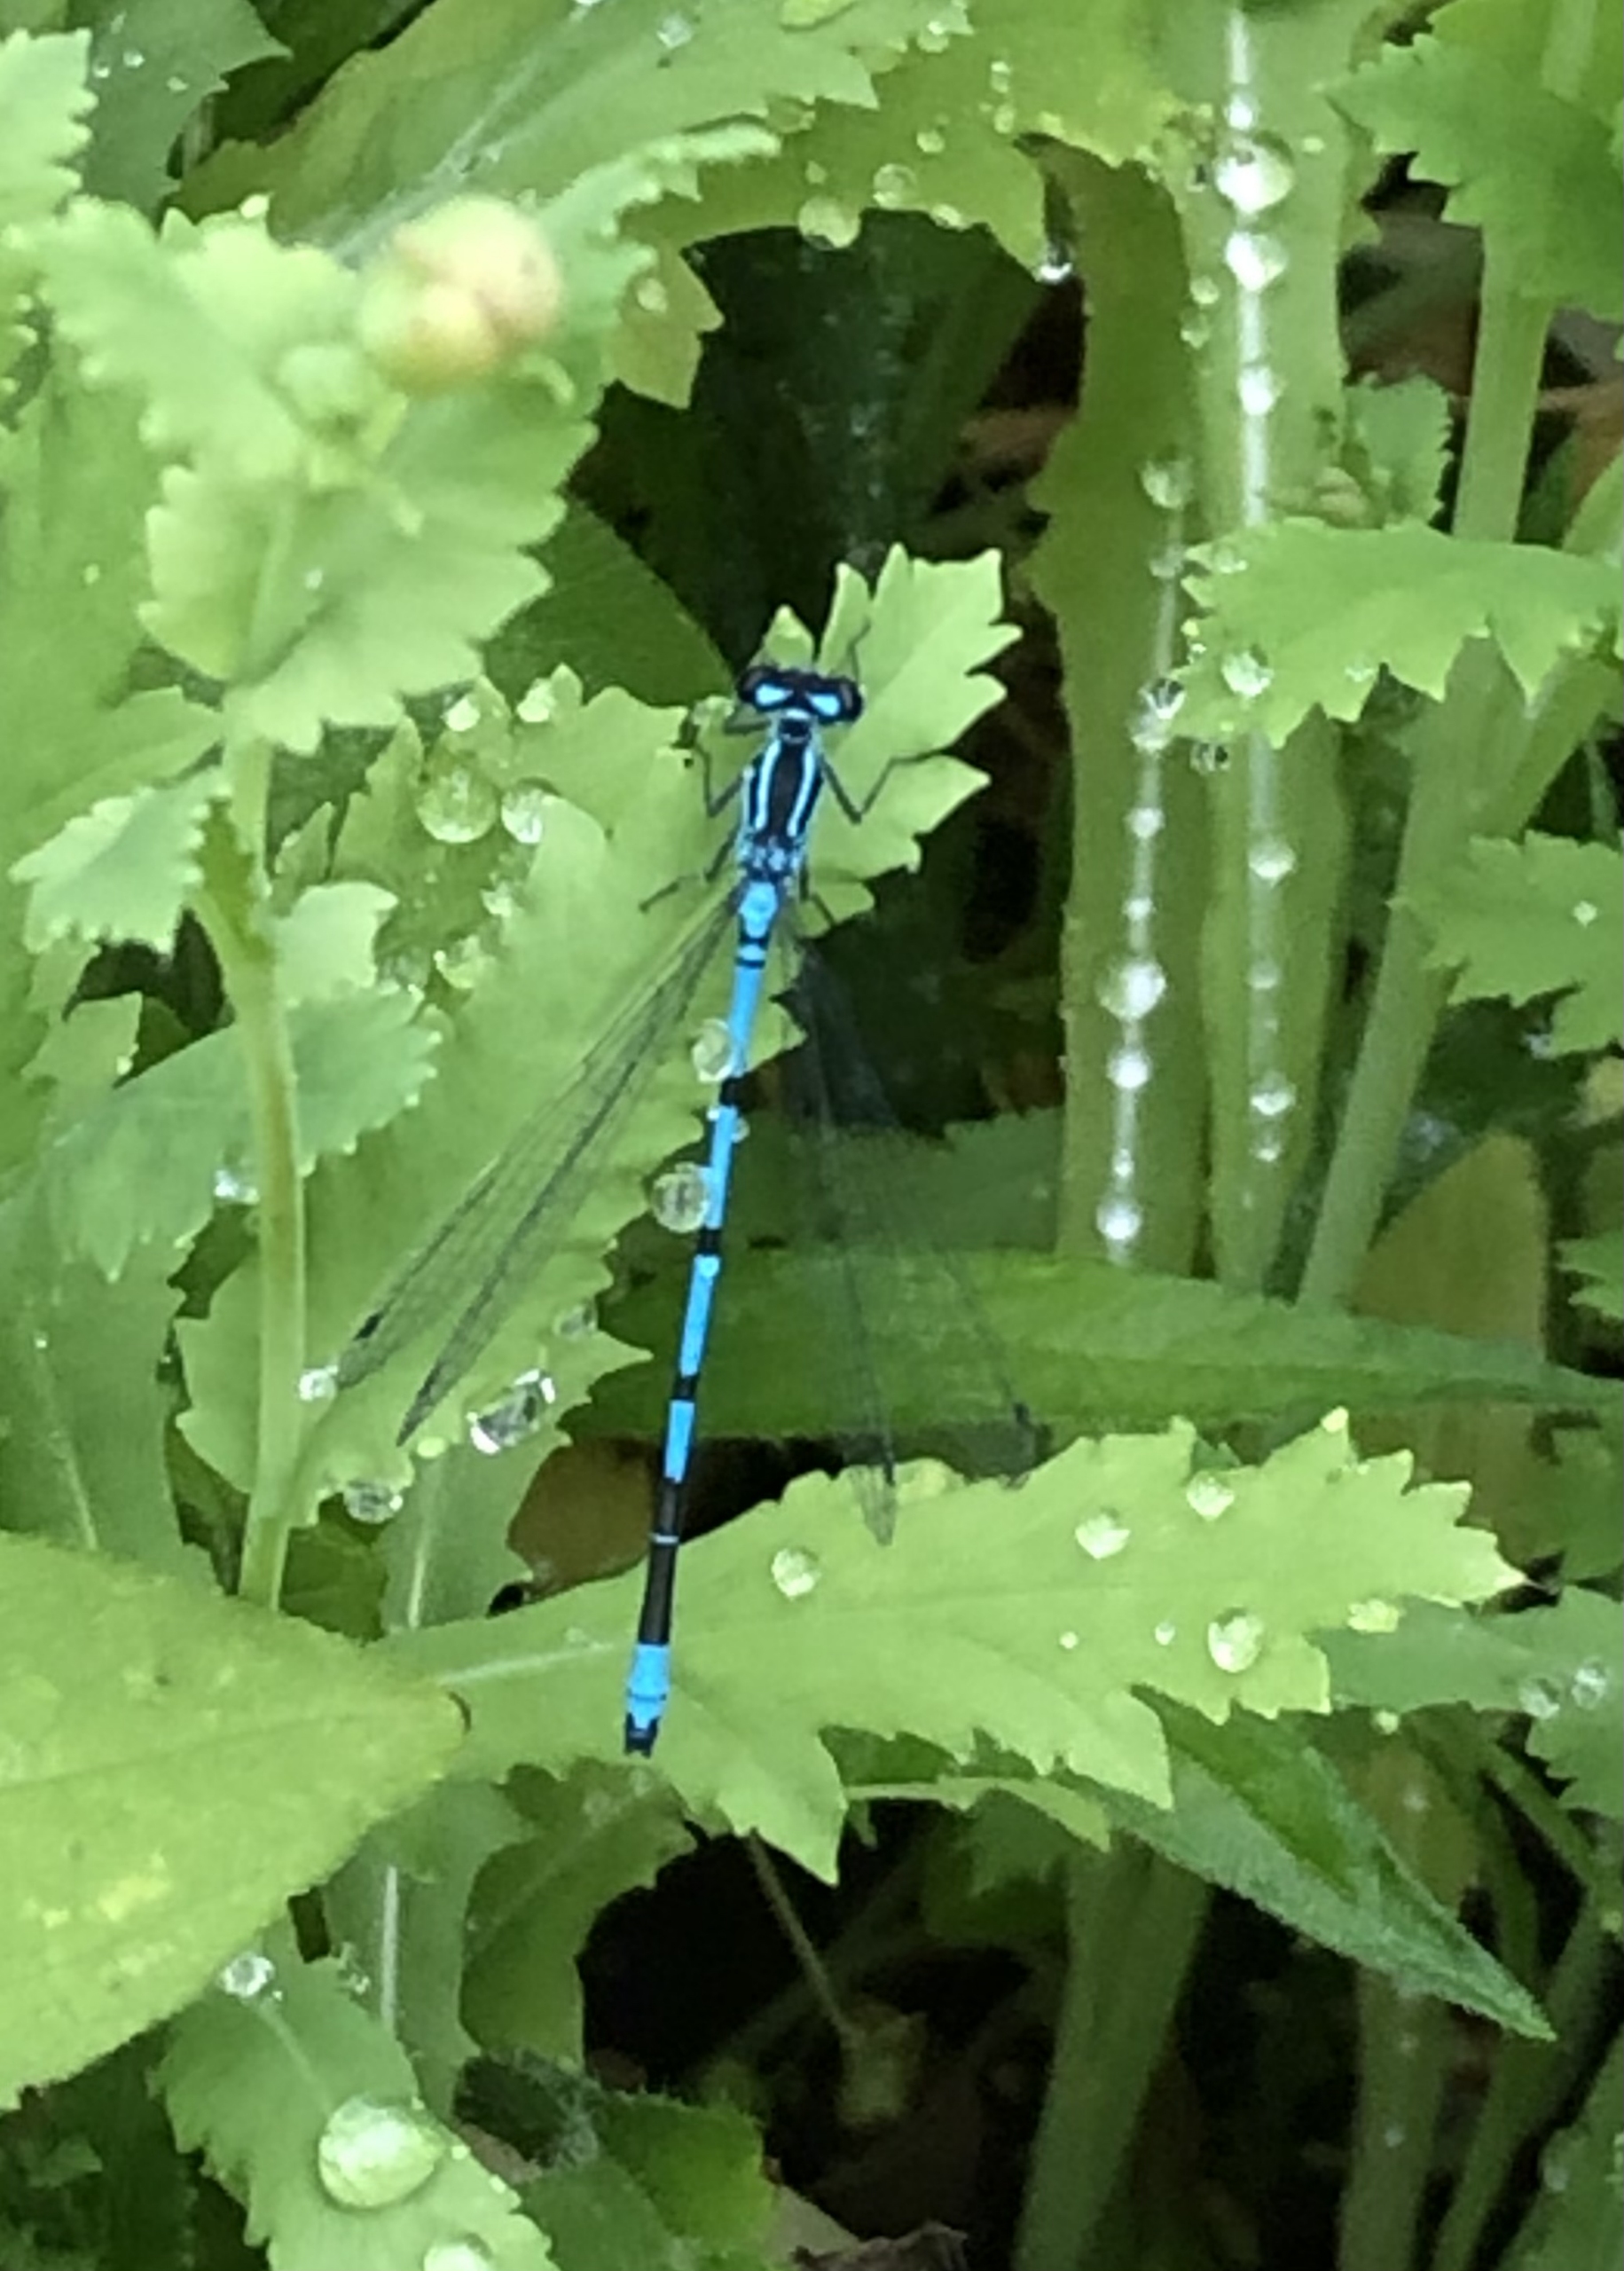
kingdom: Animalia
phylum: Arthropoda
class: Insecta
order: Odonata
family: Coenagrionidae
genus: Coenagrion
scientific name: Coenagrion puella
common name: Hestesko-vandnymfe
